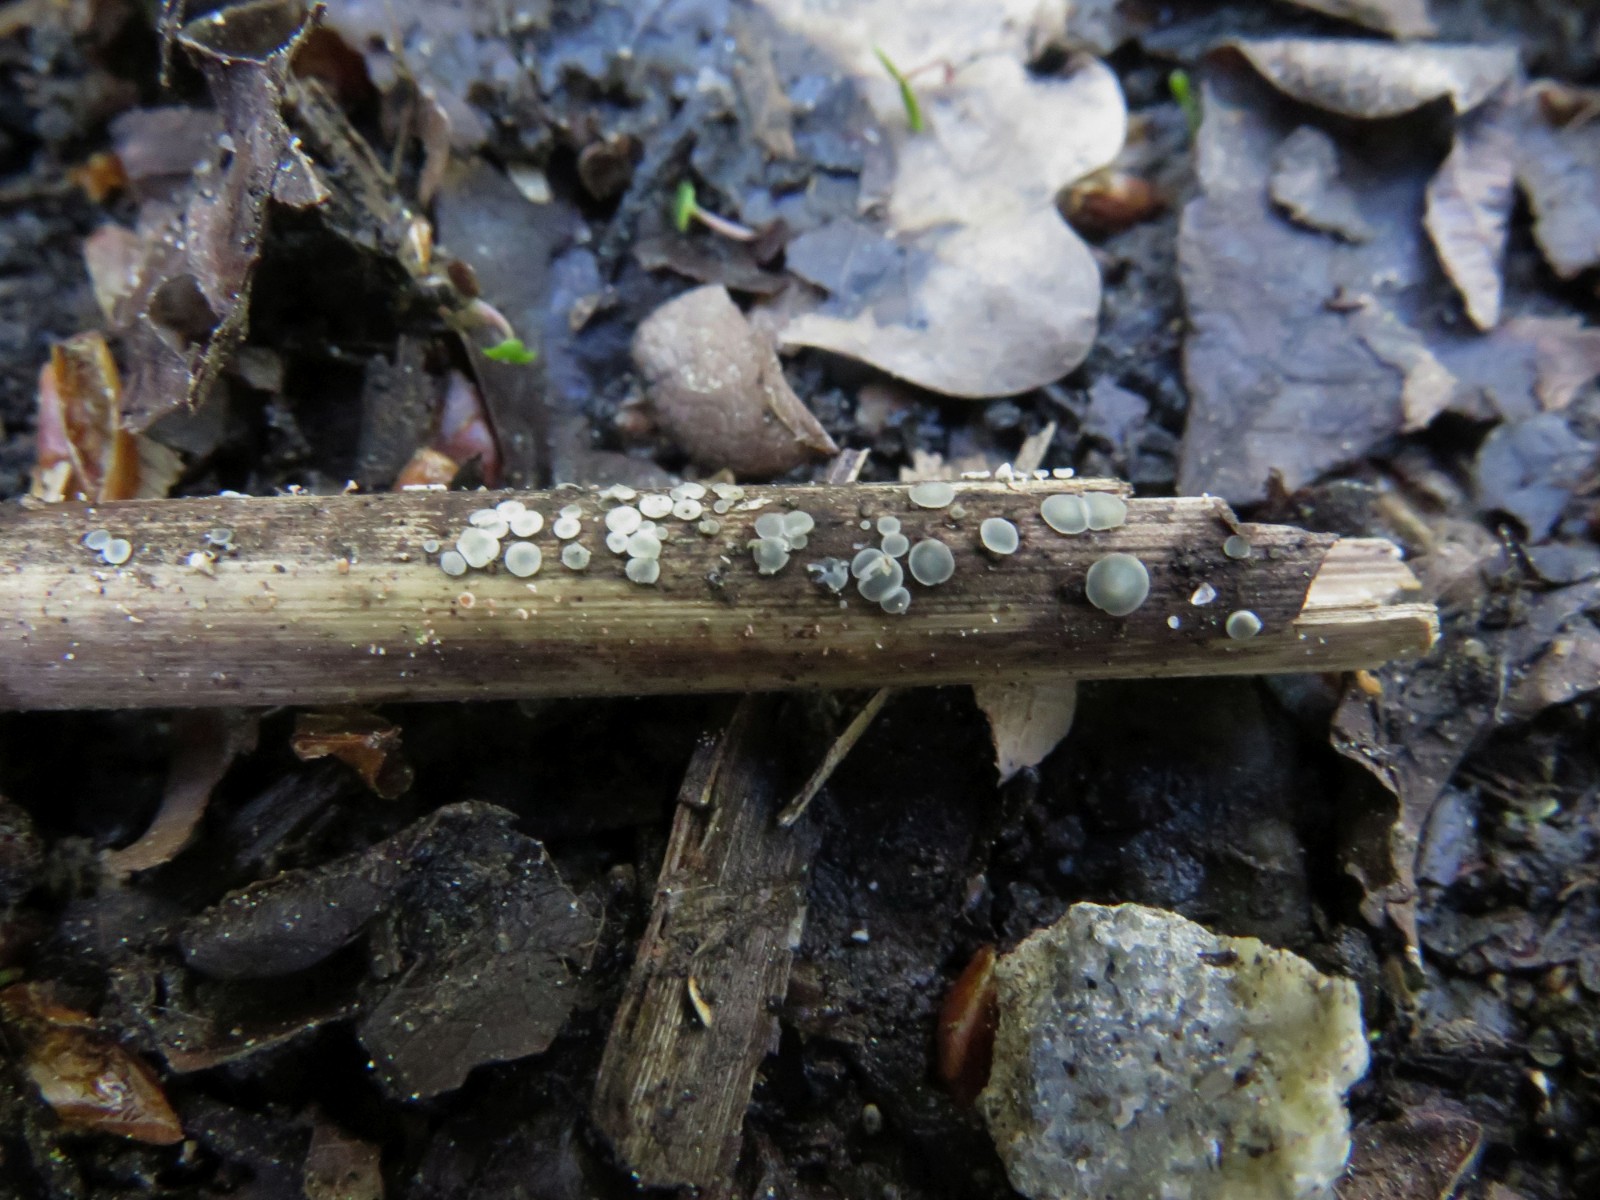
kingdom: Fungi
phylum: Ascomycota
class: Leotiomycetes
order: Helotiales
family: Mollisiaceae
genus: Mollisia
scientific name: Mollisia hydrophila
